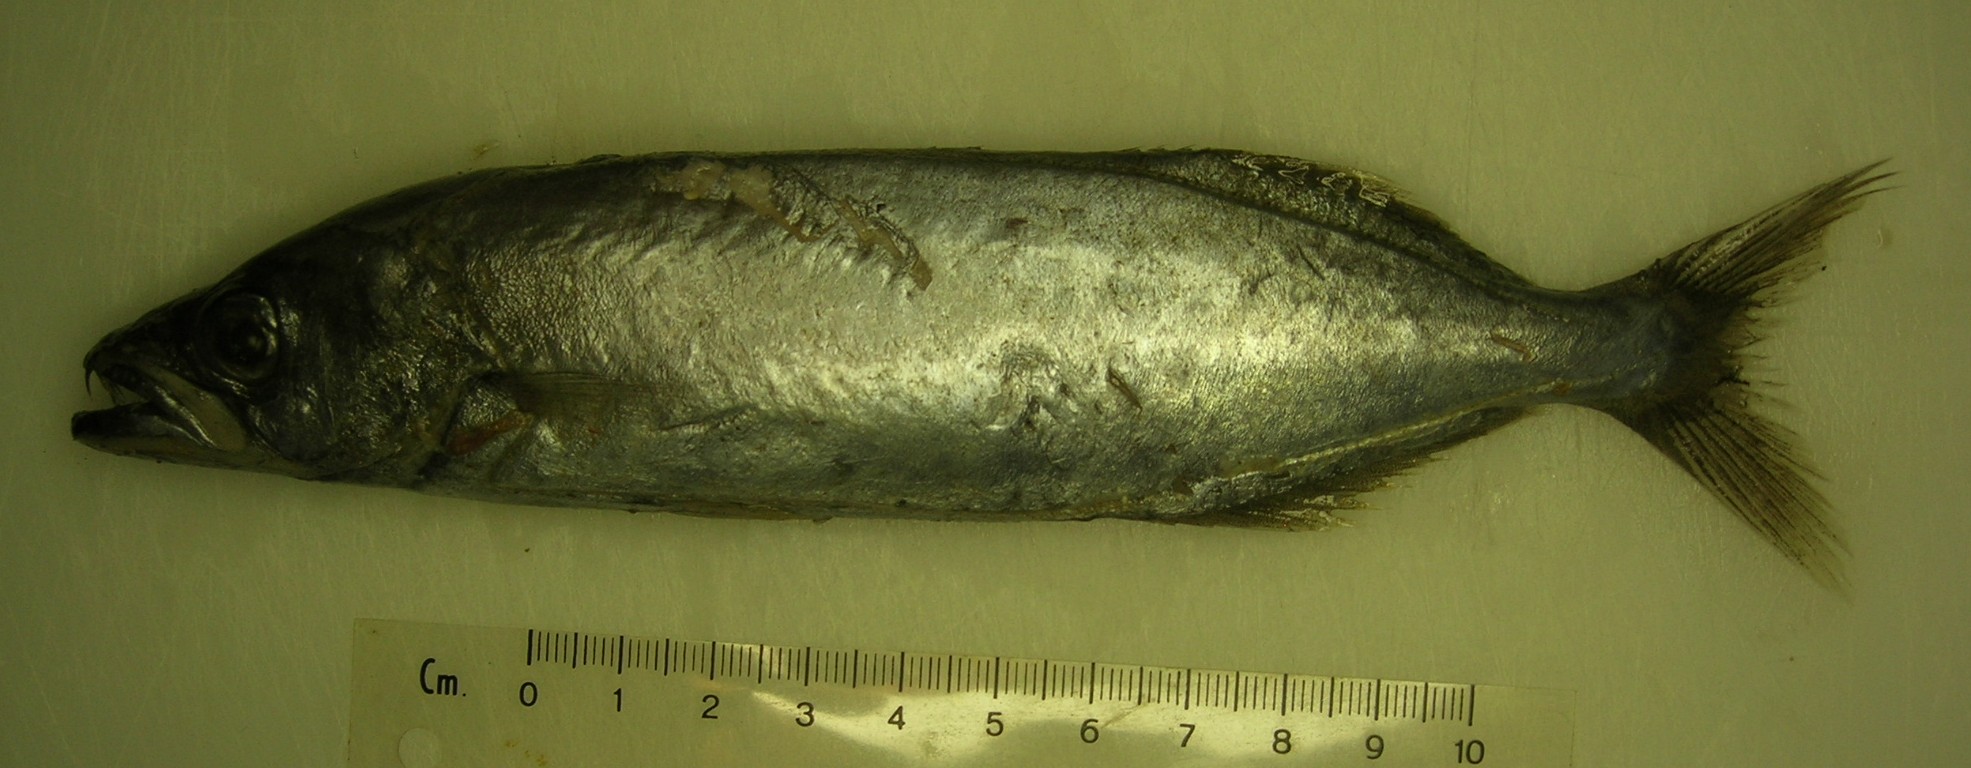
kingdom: Animalia
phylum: Chordata
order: Perciformes
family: Gempylidae
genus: Neoepinnula
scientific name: Neoepinnula orientalis
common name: Sackfish
